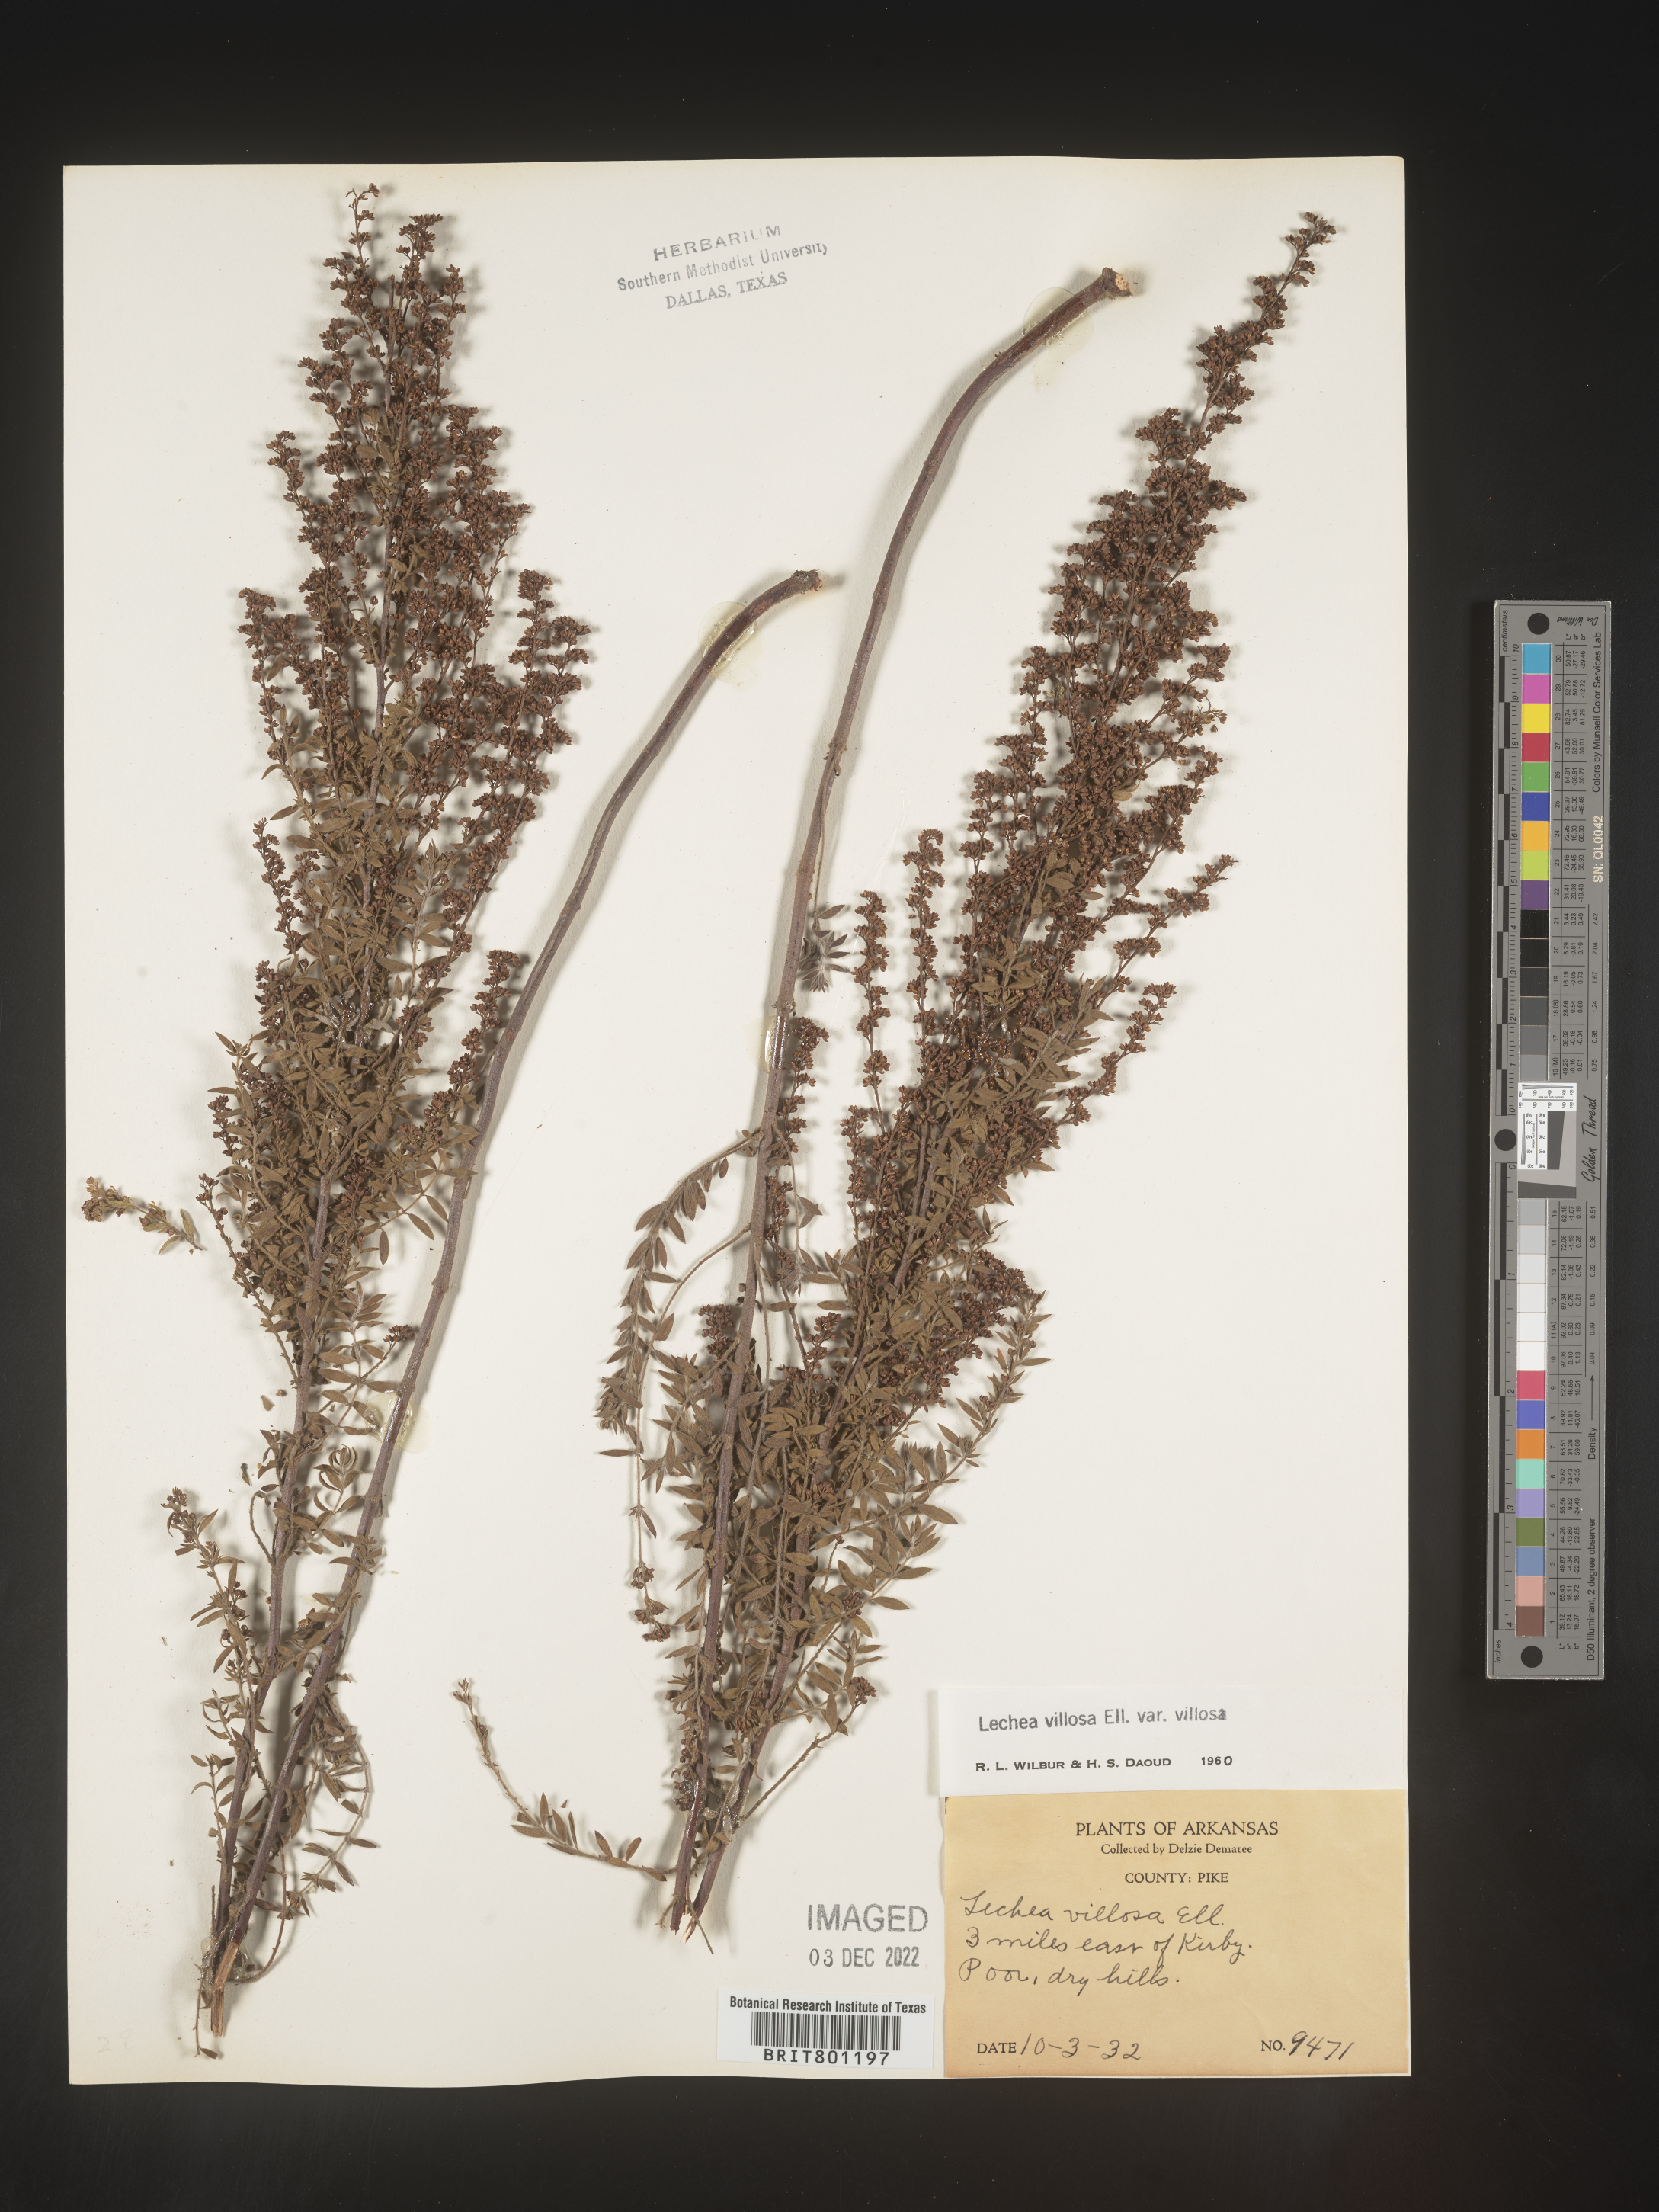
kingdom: Plantae
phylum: Tracheophyta
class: Magnoliopsida
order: Malvales
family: Cistaceae
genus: Lechea
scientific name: Lechea mucronata
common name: Hairy pinweed
